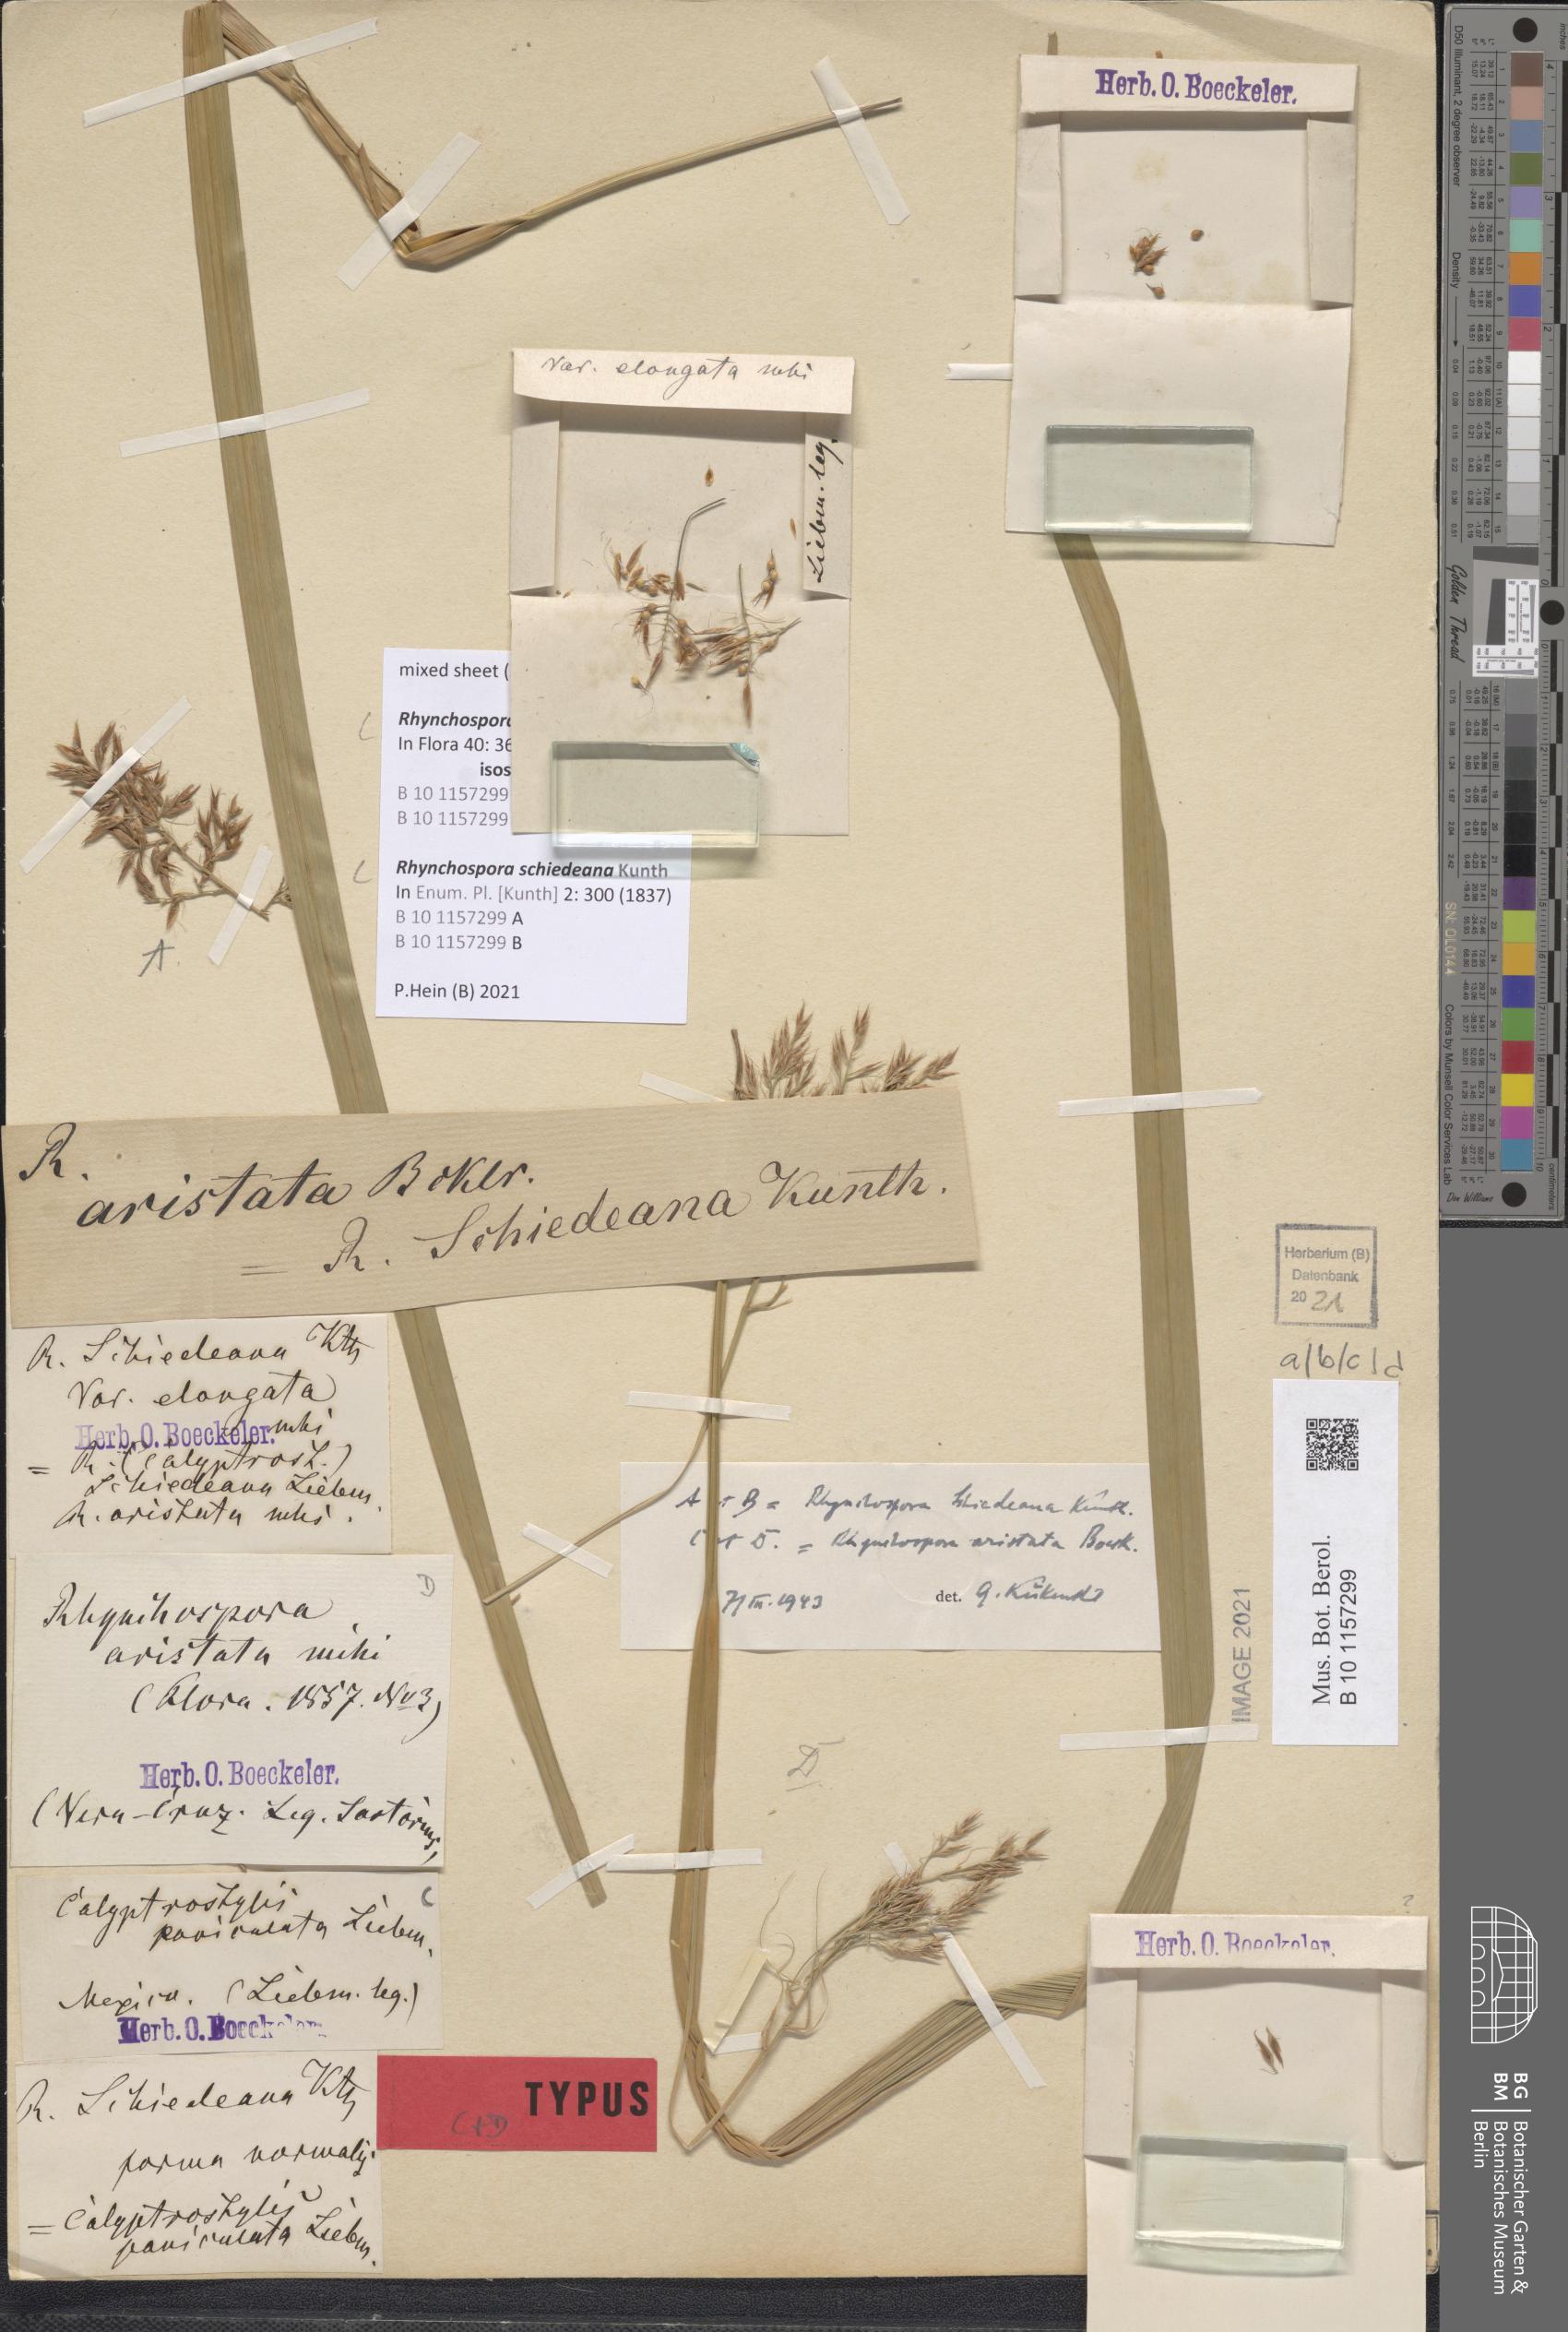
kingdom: Plantae
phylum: Tracheophyta
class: Liliopsida
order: Poales
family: Cyperaceae
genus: Rhynchospora
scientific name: Rhynchospora schiedeana
